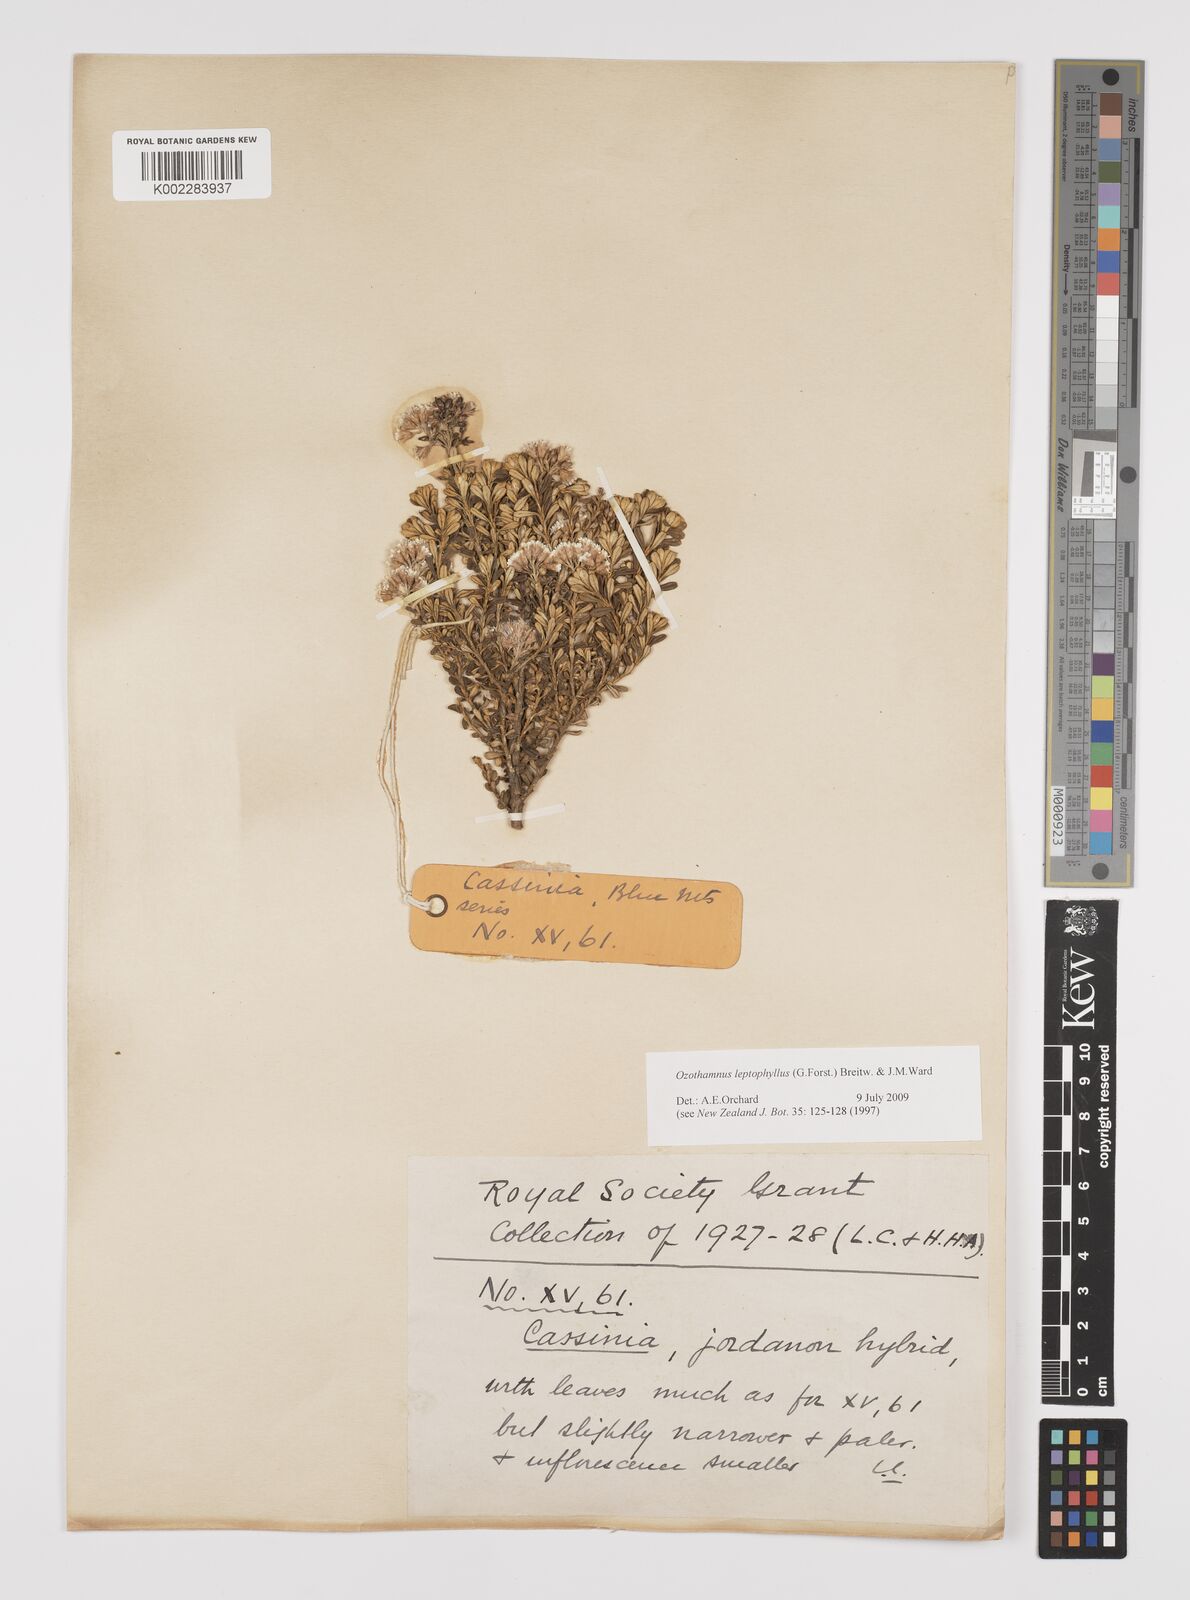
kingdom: Plantae
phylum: Tracheophyta
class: Magnoliopsida
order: Asterales
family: Asteraceae
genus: Ozothamnus
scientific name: Ozothamnus leptophyllus
